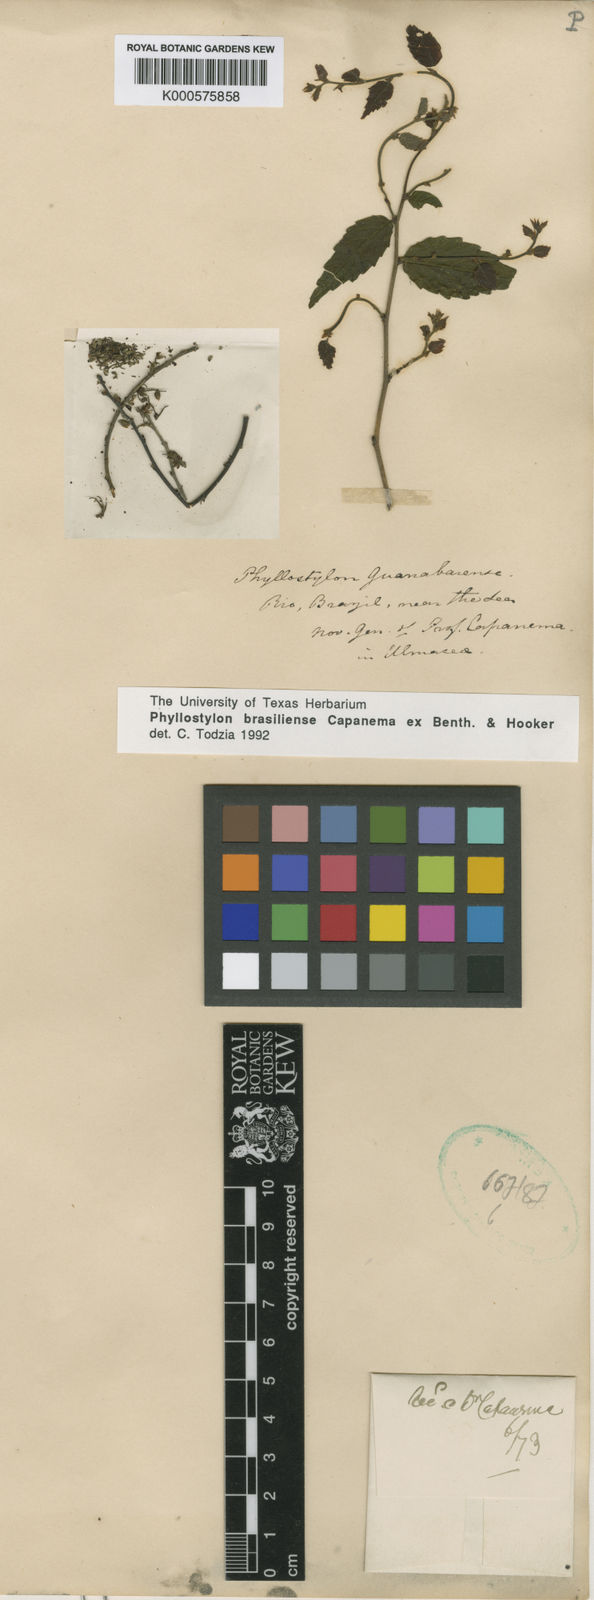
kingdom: Plantae
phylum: Tracheophyta
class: Magnoliopsida
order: Rosales
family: Ulmaceae
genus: Phyllostylon
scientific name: Phyllostylon brasiliensis
